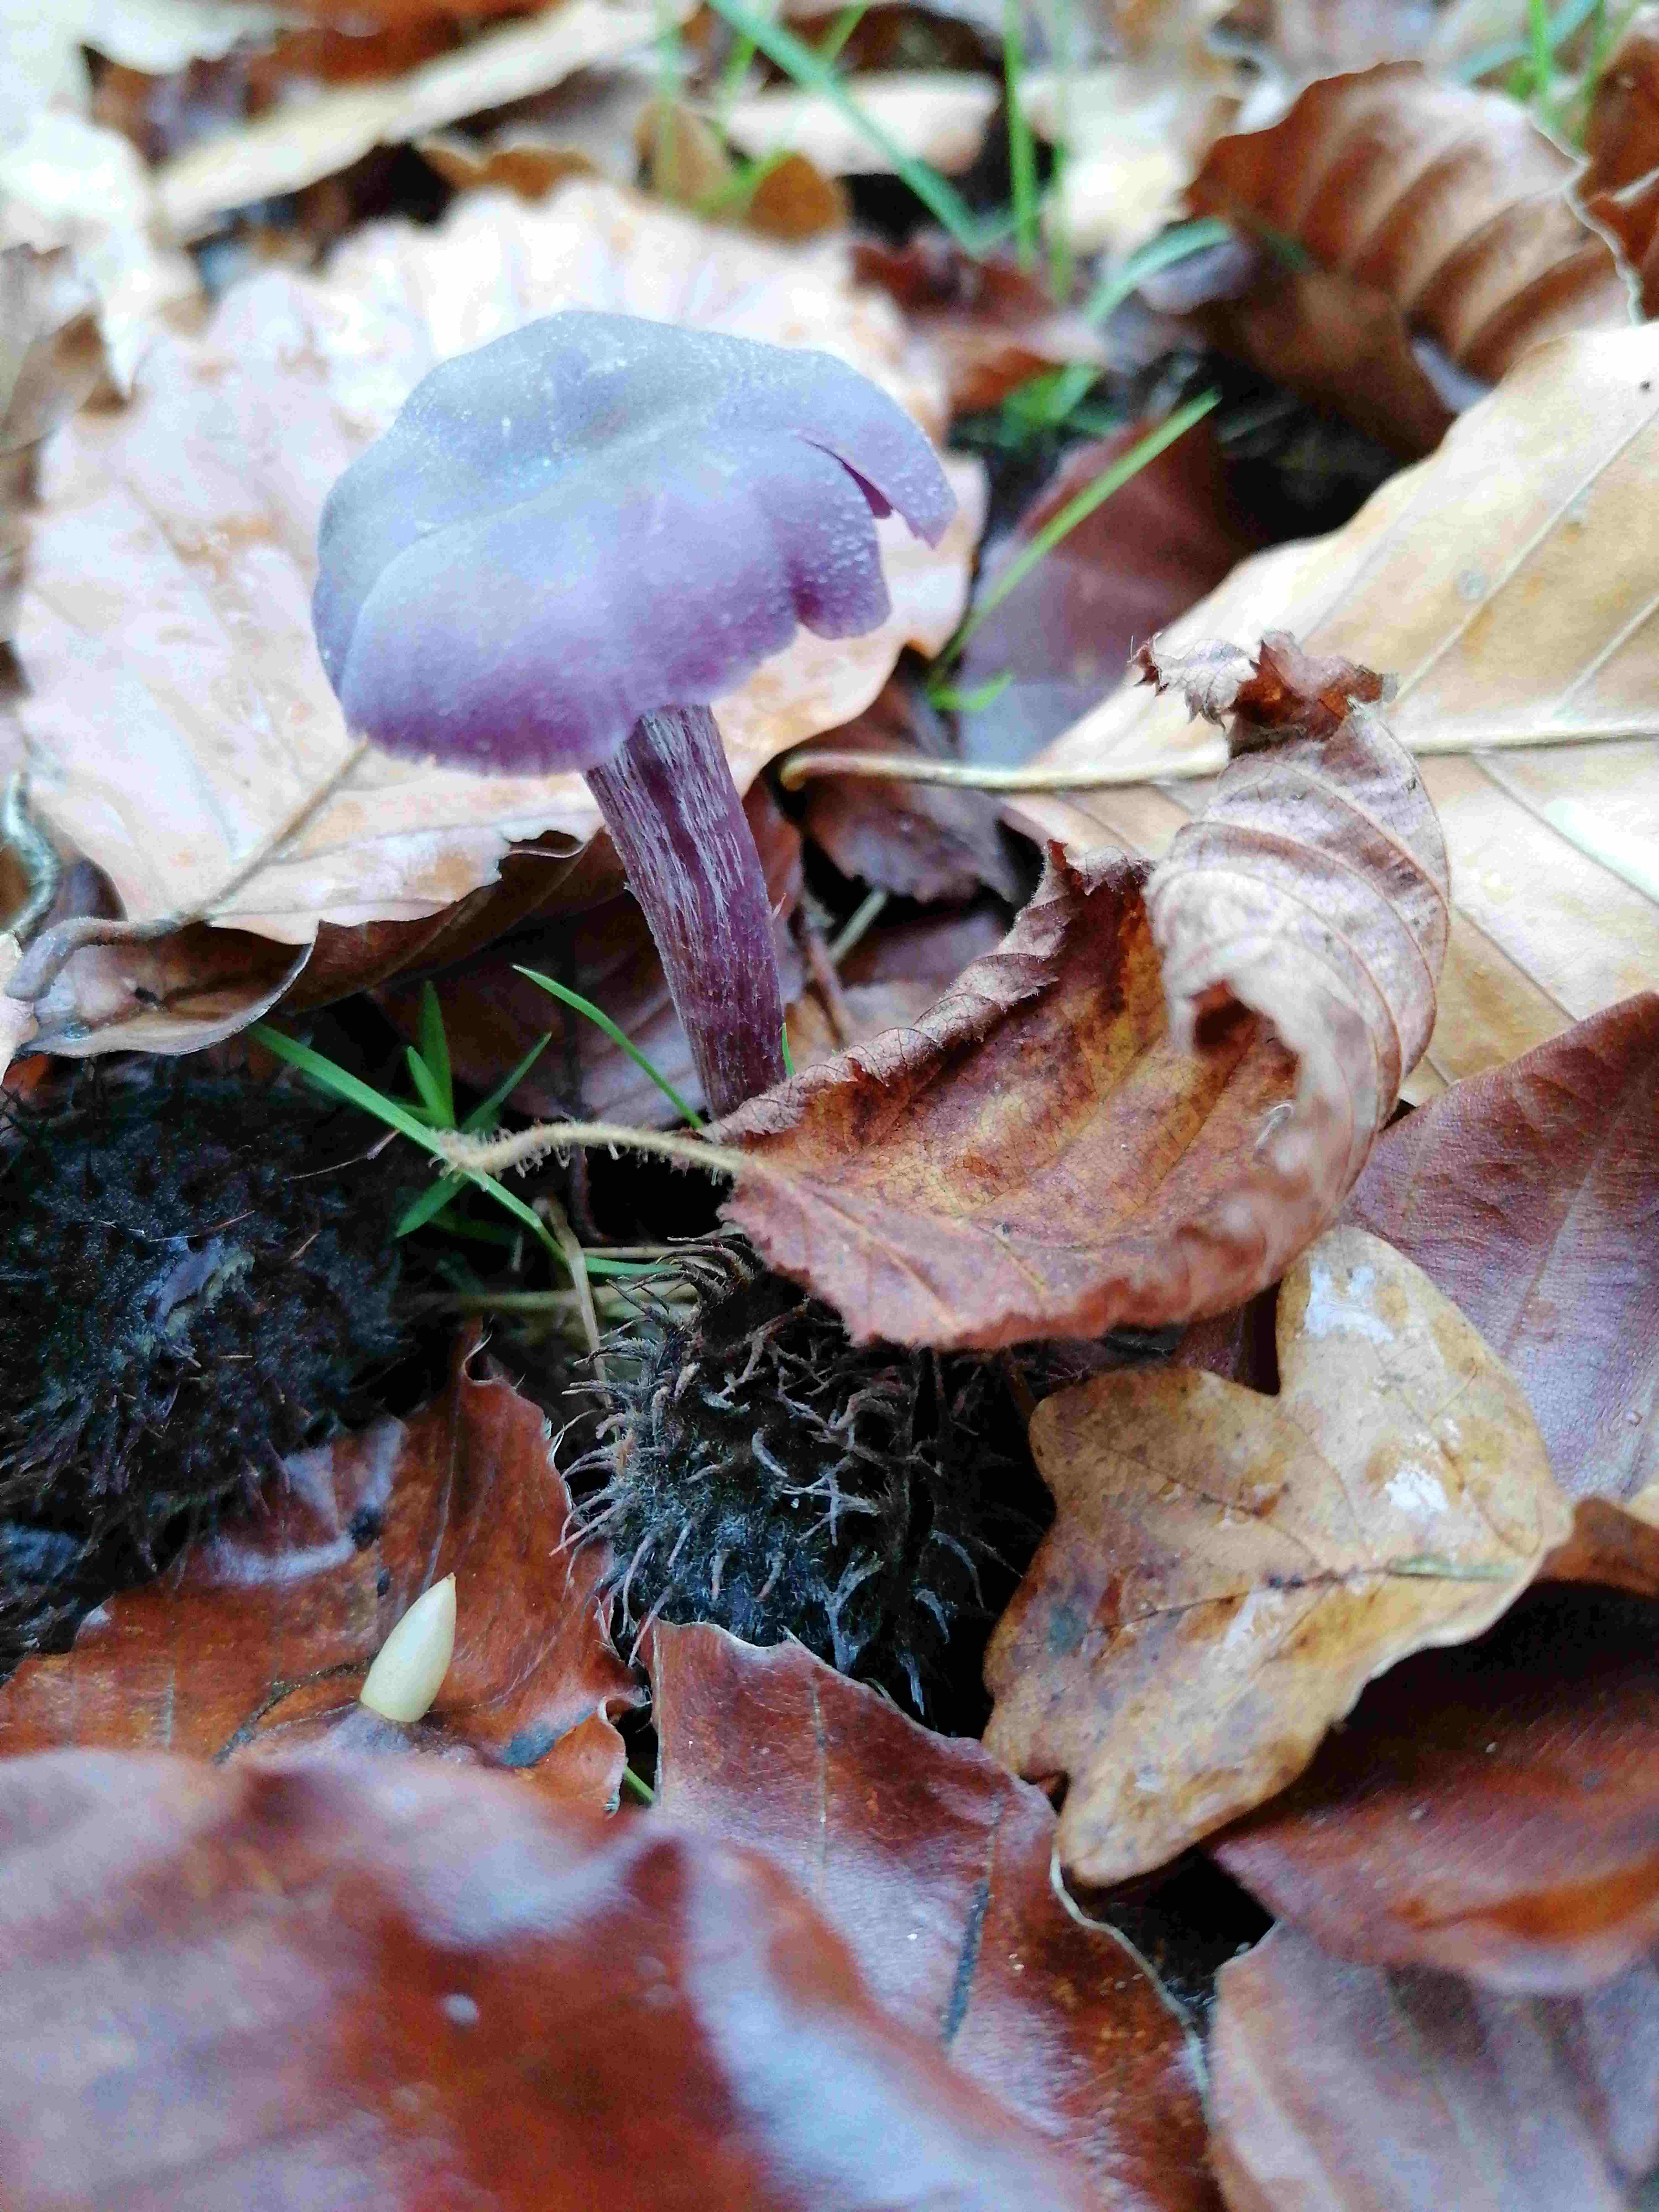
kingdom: Fungi
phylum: Basidiomycota
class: Agaricomycetes
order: Agaricales
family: Hydnangiaceae
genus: Laccaria
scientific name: Laccaria amethystina
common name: violet ametysthat
